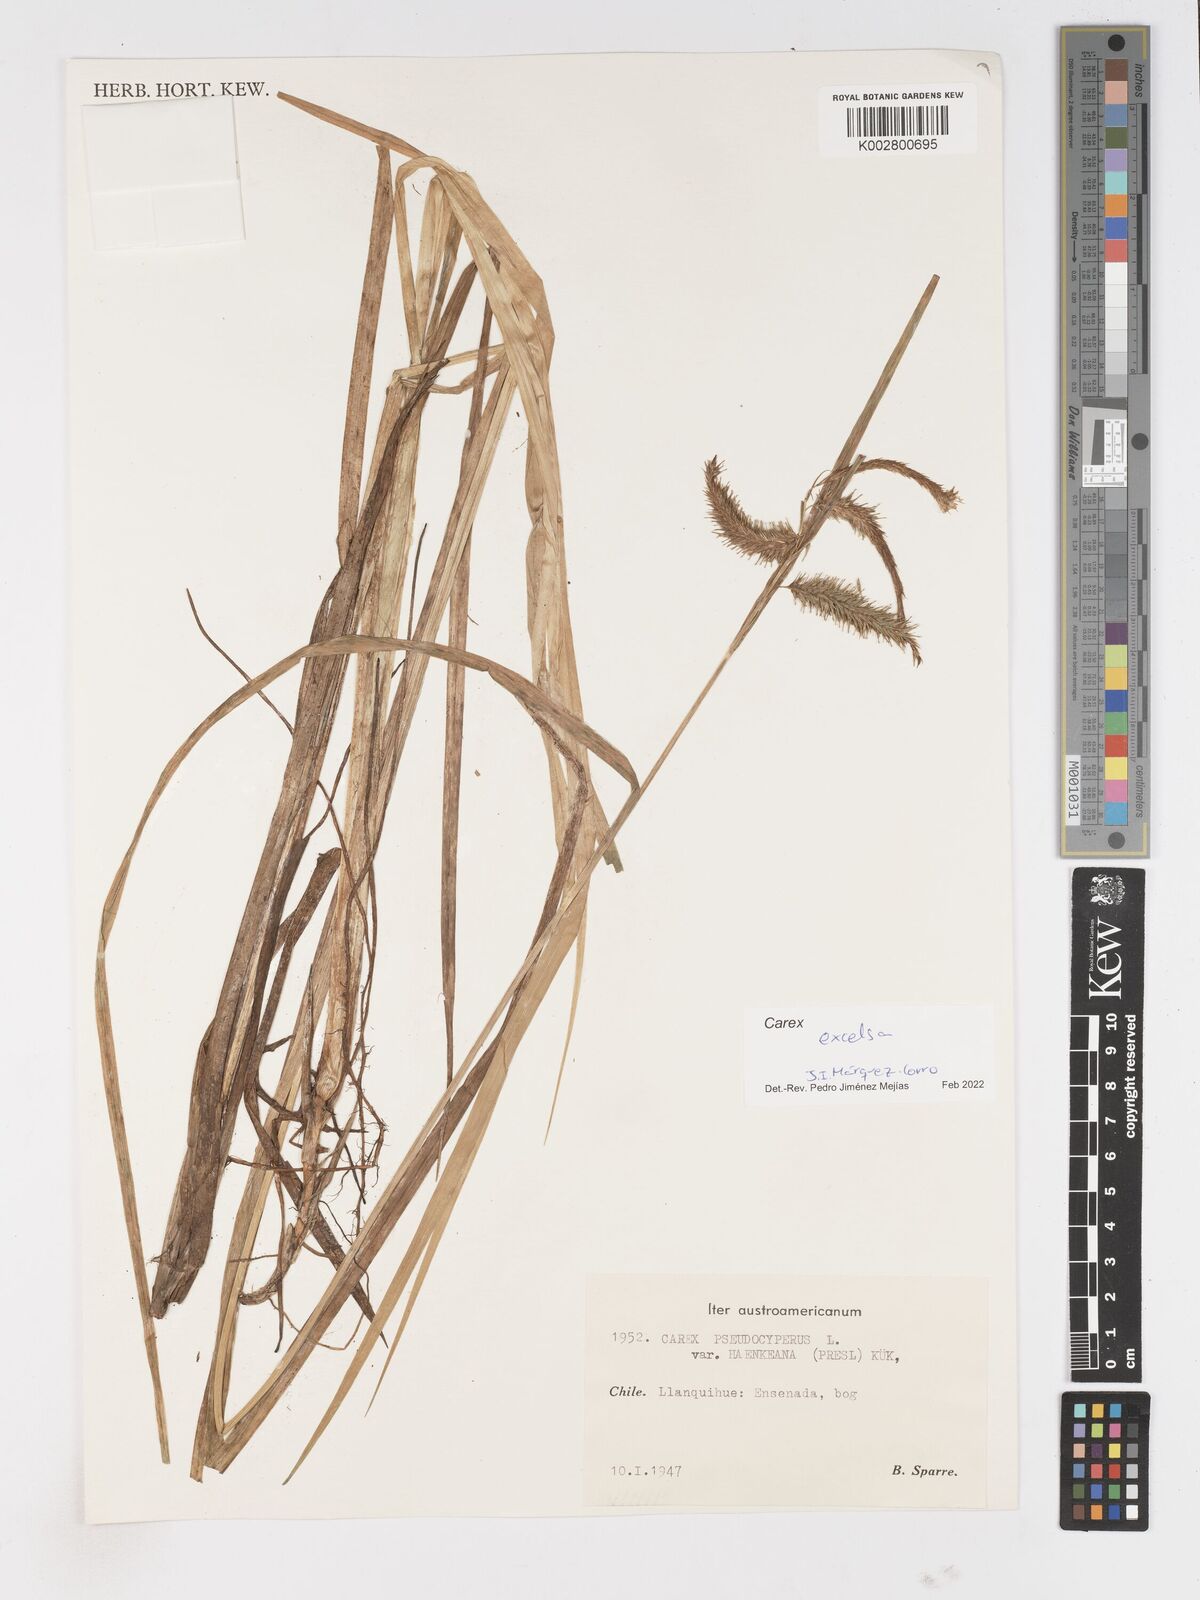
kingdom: Plantae
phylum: Tracheophyta
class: Liliopsida
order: Poales
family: Cyperaceae
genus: Carex
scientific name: Carex excelsa
